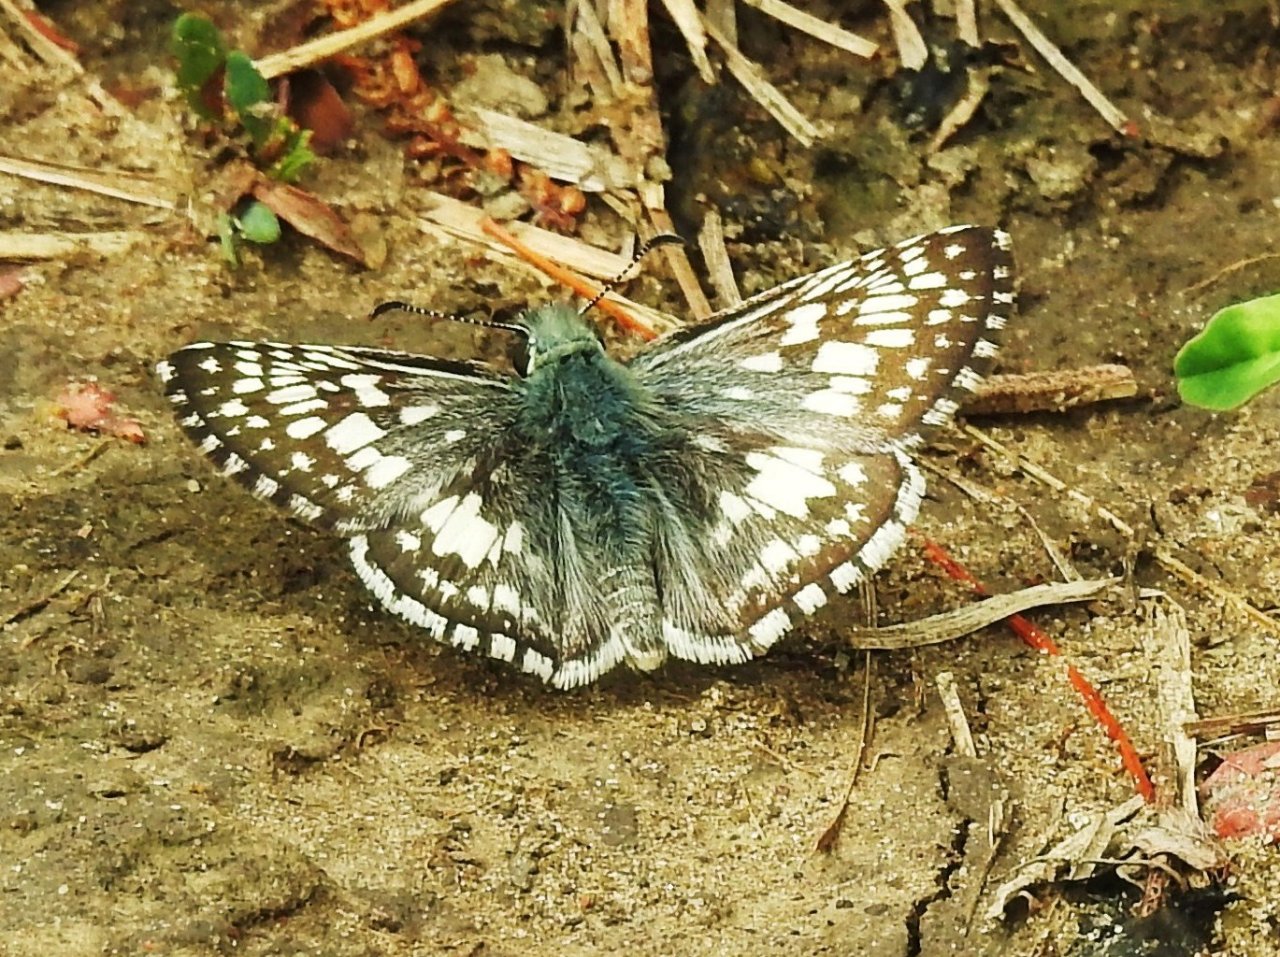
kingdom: Animalia
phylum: Arthropoda
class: Insecta
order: Lepidoptera
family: Hesperiidae
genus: Pyrgus
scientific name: Pyrgus communis
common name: Common Checkered-Skipper
